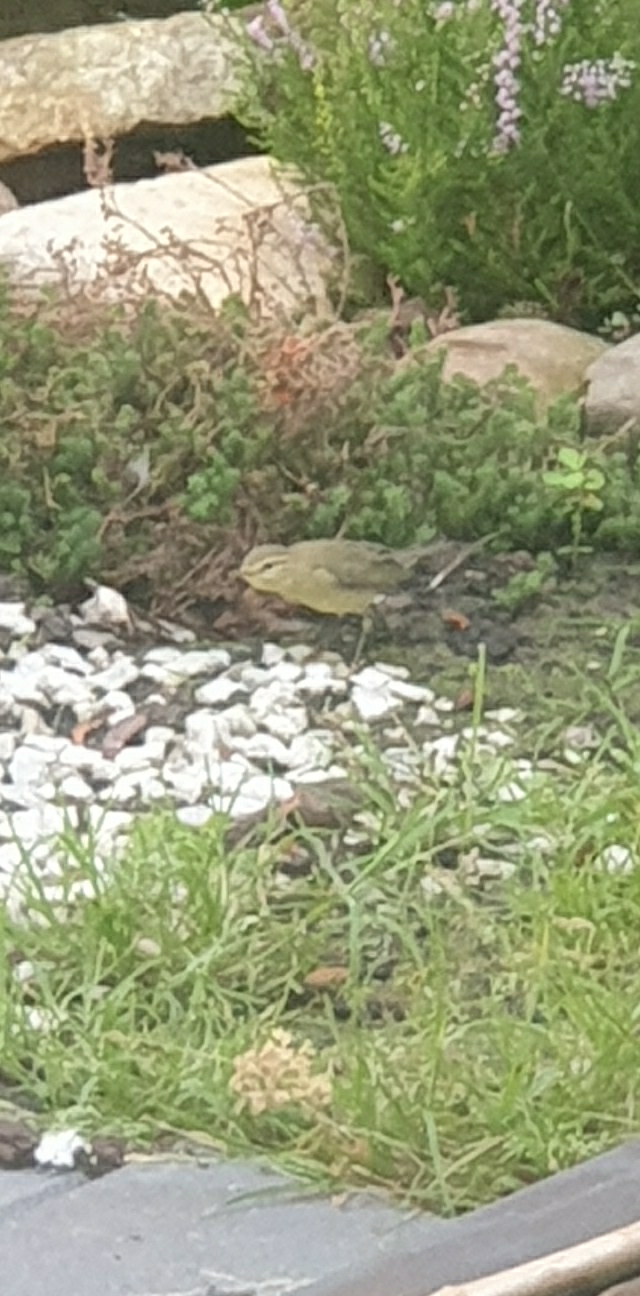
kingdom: Animalia
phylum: Chordata
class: Aves
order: Passeriformes
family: Phylloscopidae
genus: Phylloscopus
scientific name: Phylloscopus collybita
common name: Gransanger
